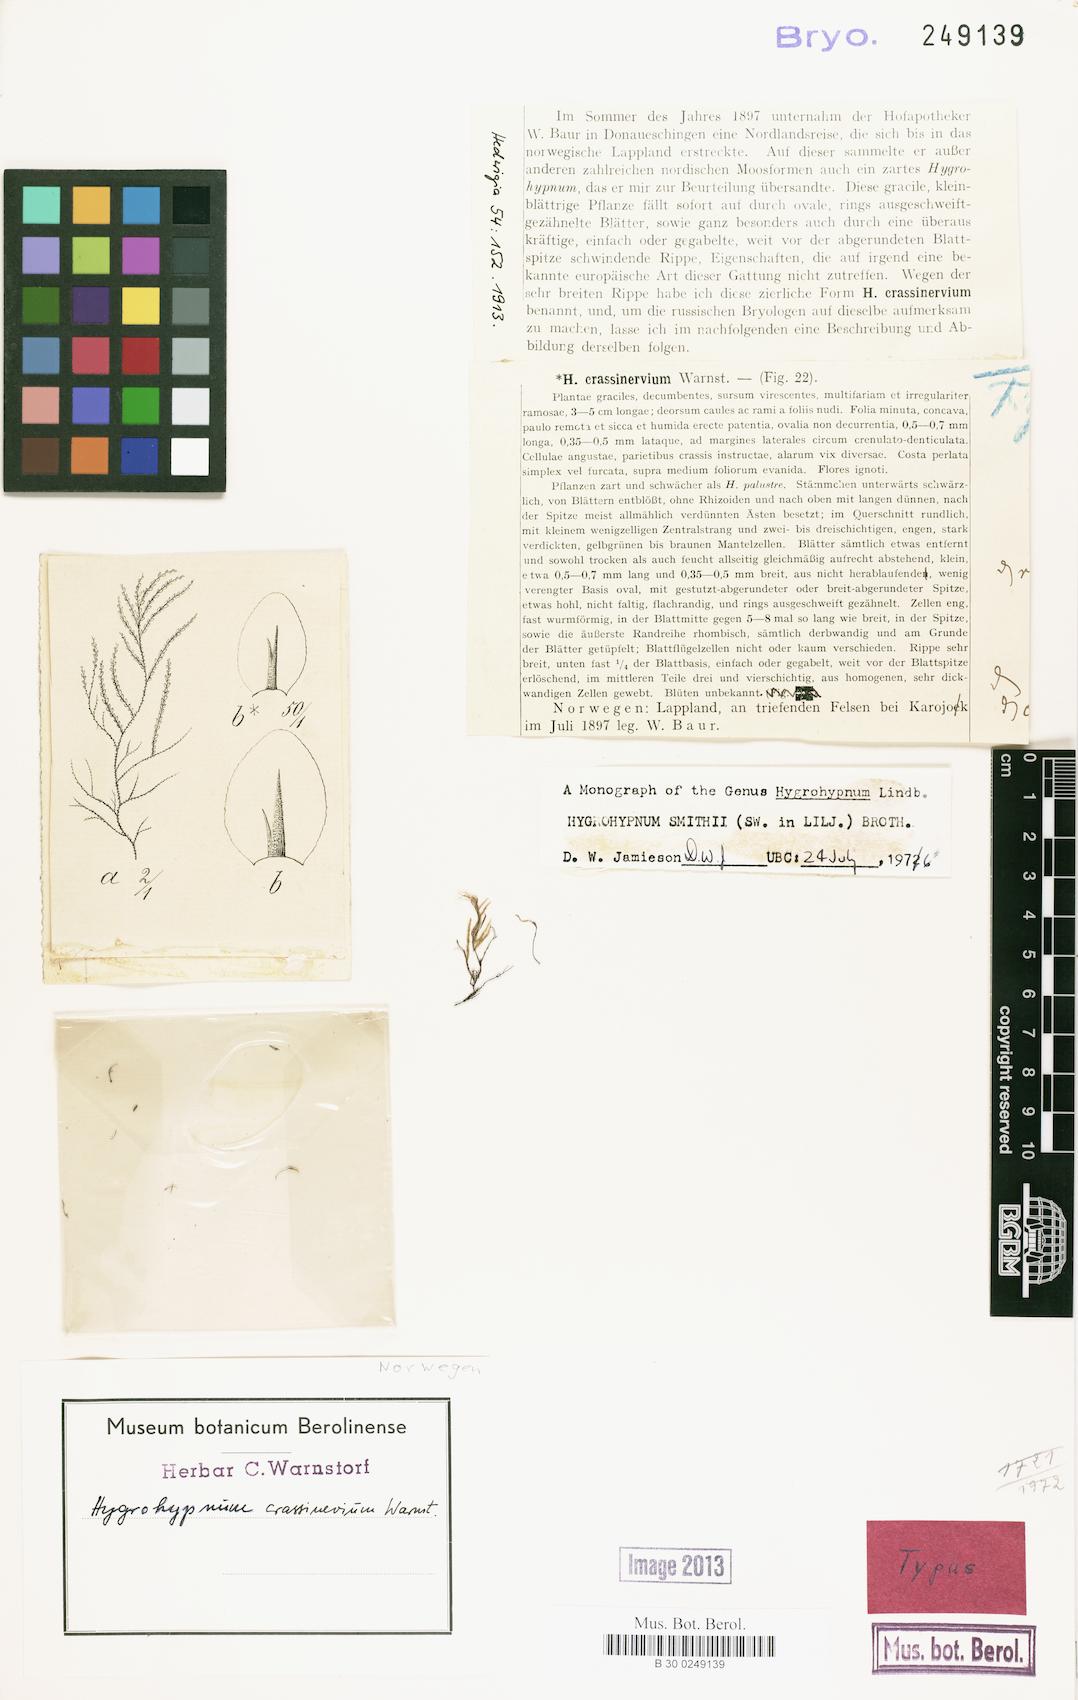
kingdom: Plantae
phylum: Bryophyta
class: Bryopsida
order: Hypnales
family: Amblystegiaceae
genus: Platyhypnum
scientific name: Platyhypnum smithii
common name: Arctic brook-moss
